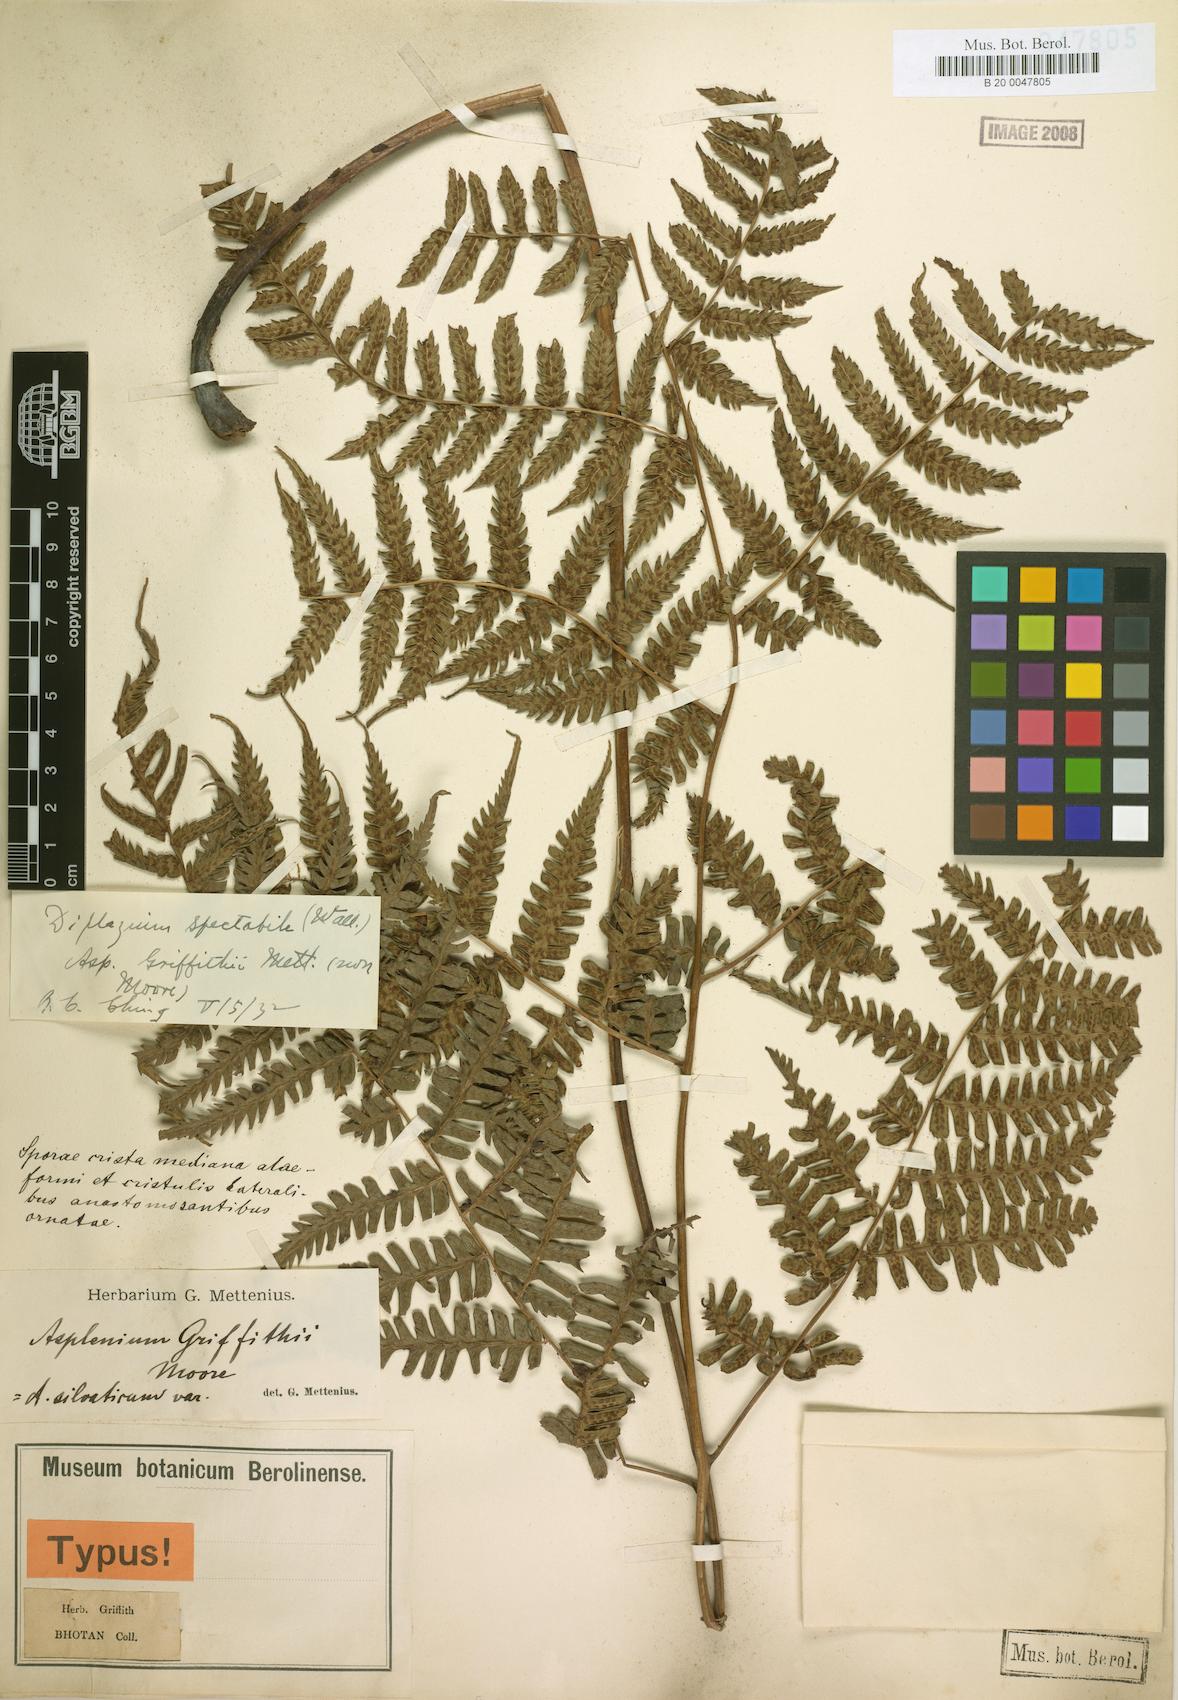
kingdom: Plantae
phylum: Tracheophyta
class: Polypodiopsida
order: Polypodiales
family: Athyriaceae
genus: Diplazium
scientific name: Diplazium griffithii
